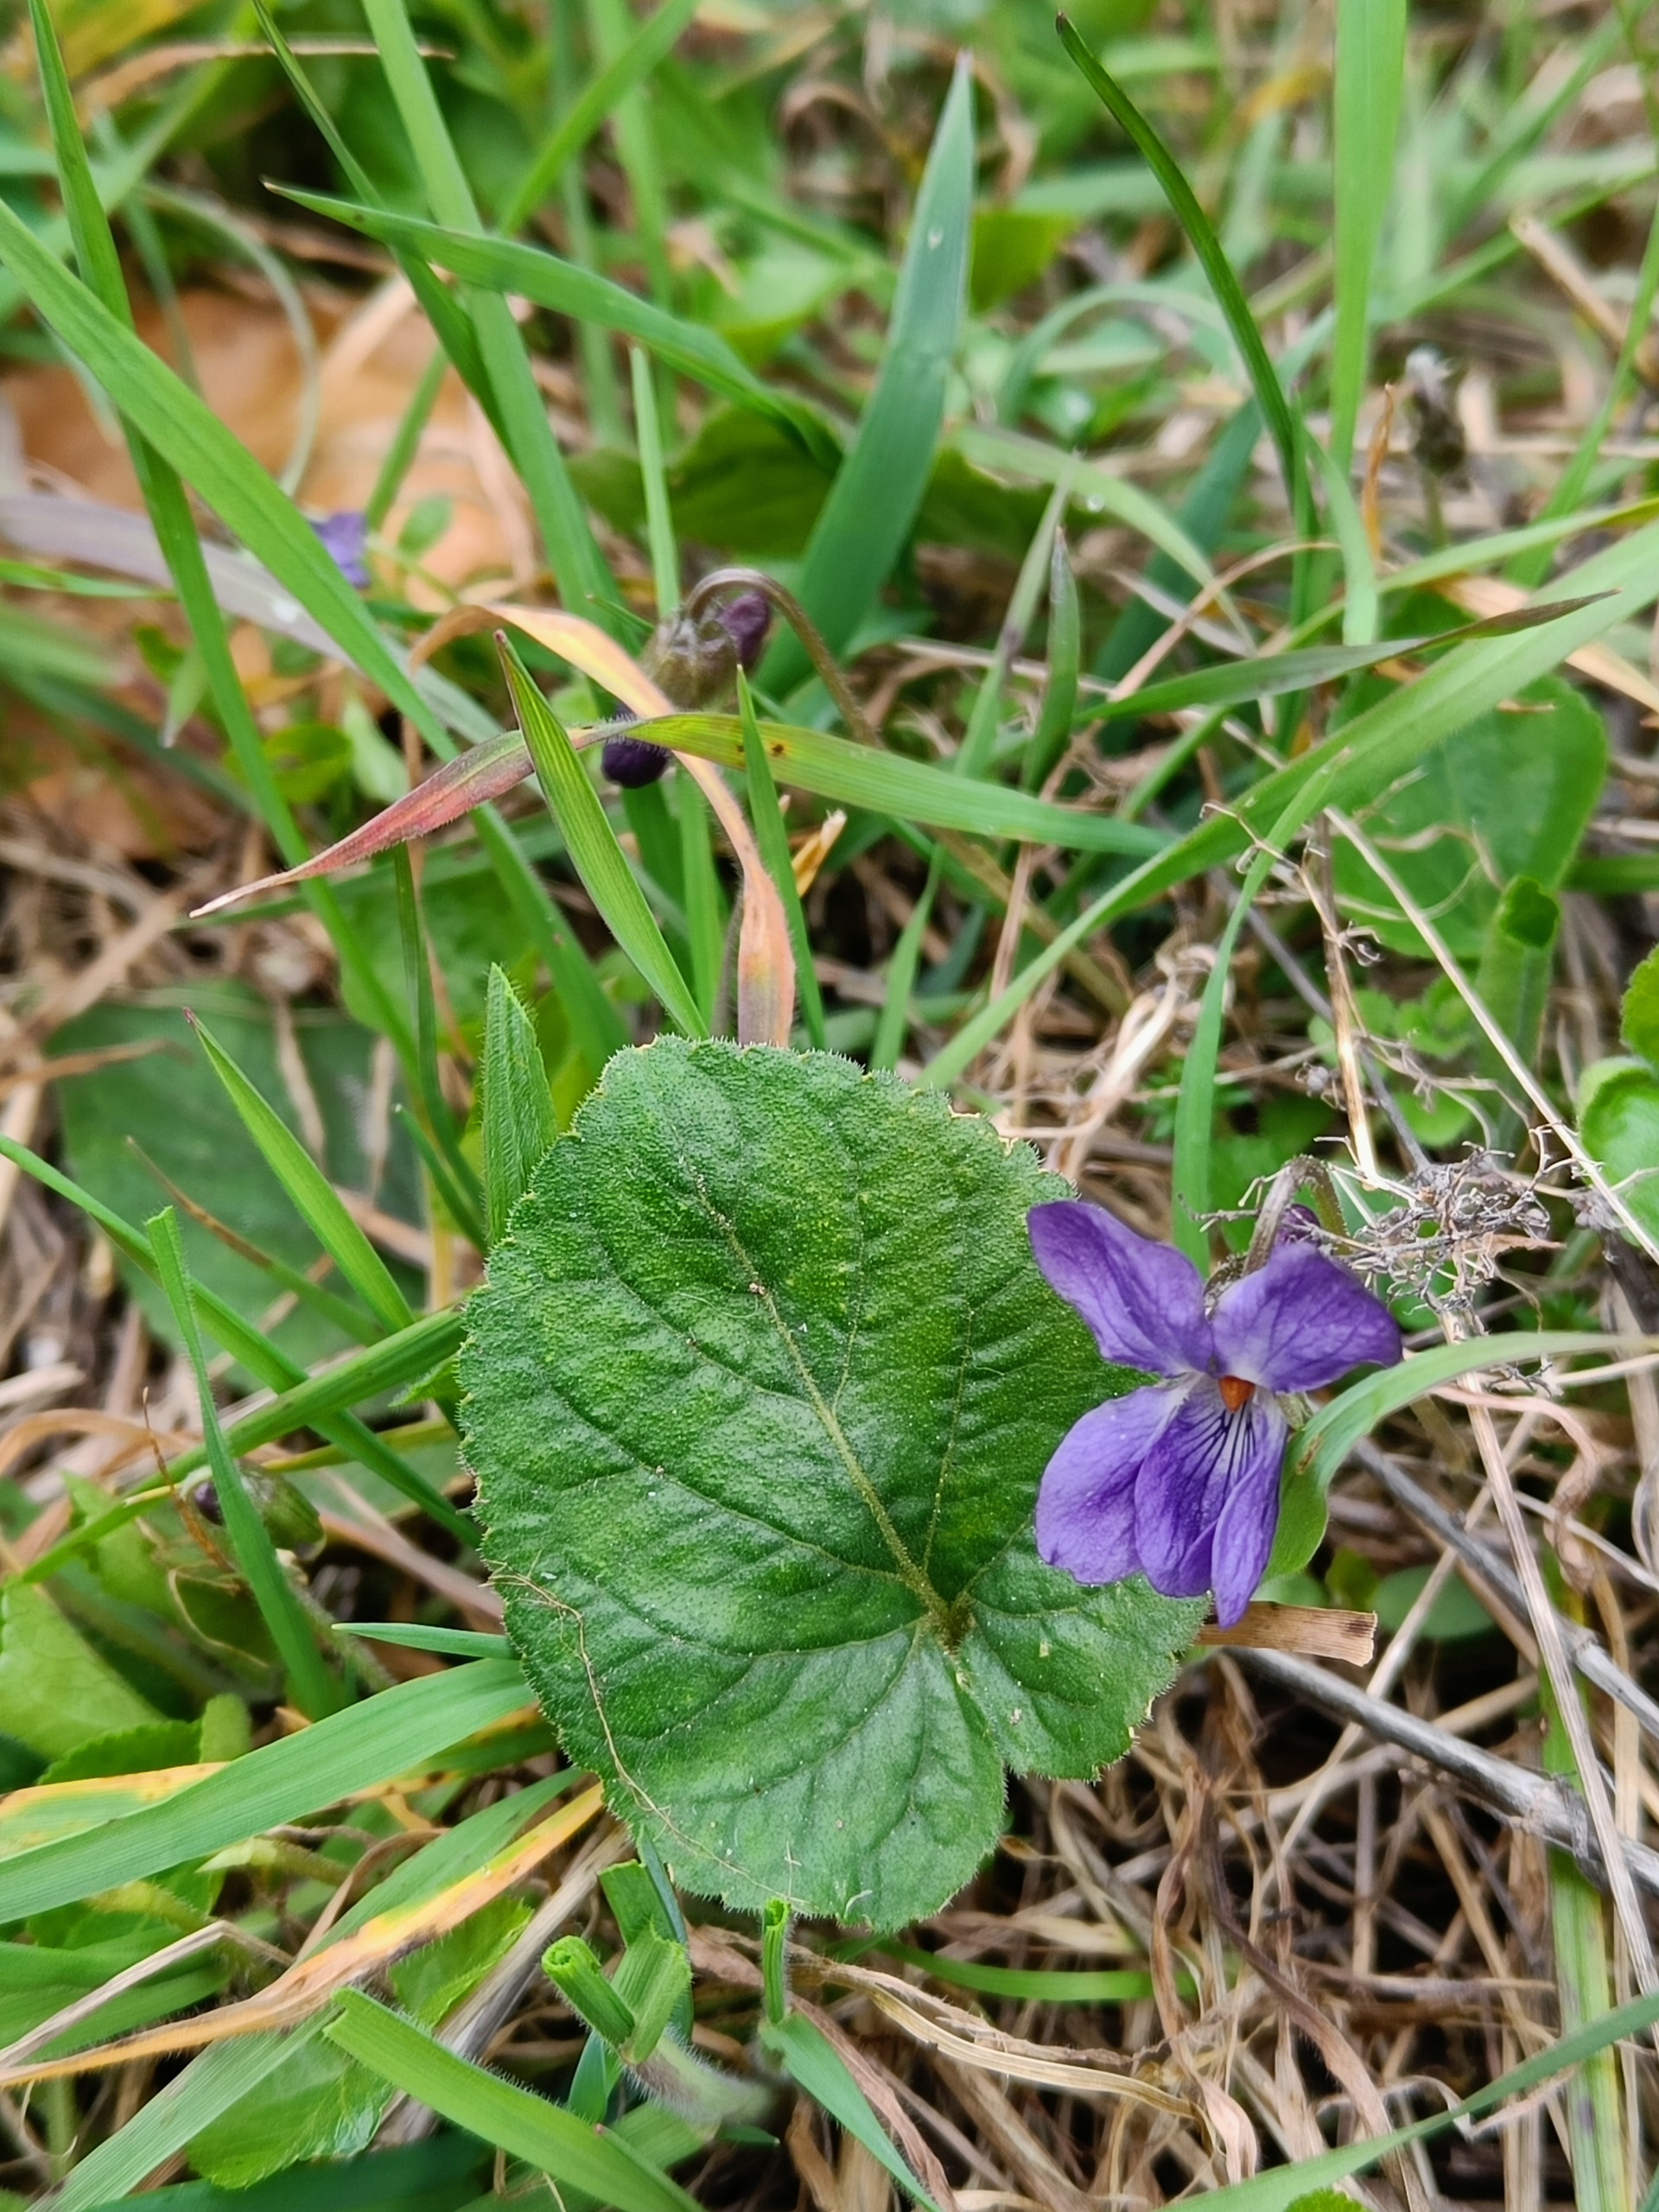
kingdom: Plantae
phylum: Tracheophyta
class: Magnoliopsida
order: Malpighiales
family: Violaceae
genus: Viola
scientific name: Viola hirta
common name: Håret viol
